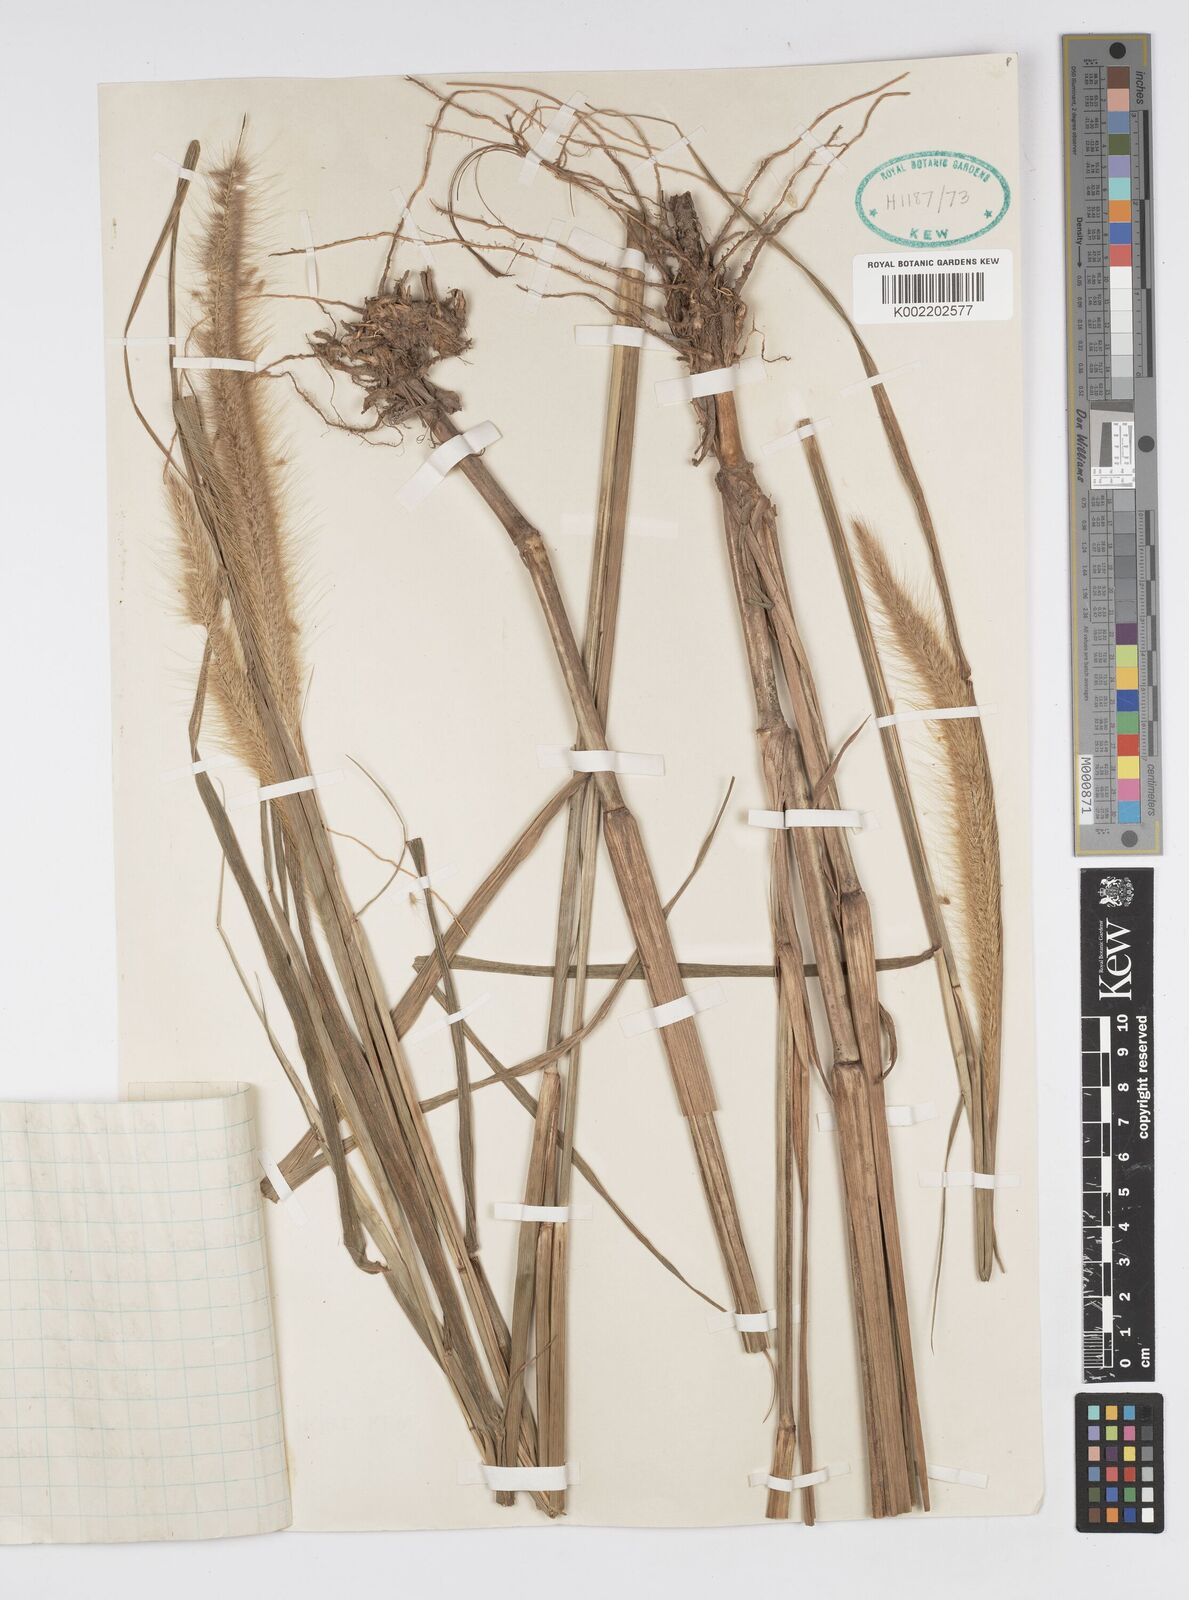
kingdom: Plantae
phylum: Tracheophyta
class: Liliopsida
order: Poales
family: Poaceae
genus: Setaria
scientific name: Setaria parviflora
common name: Knotroot bristle-grass
